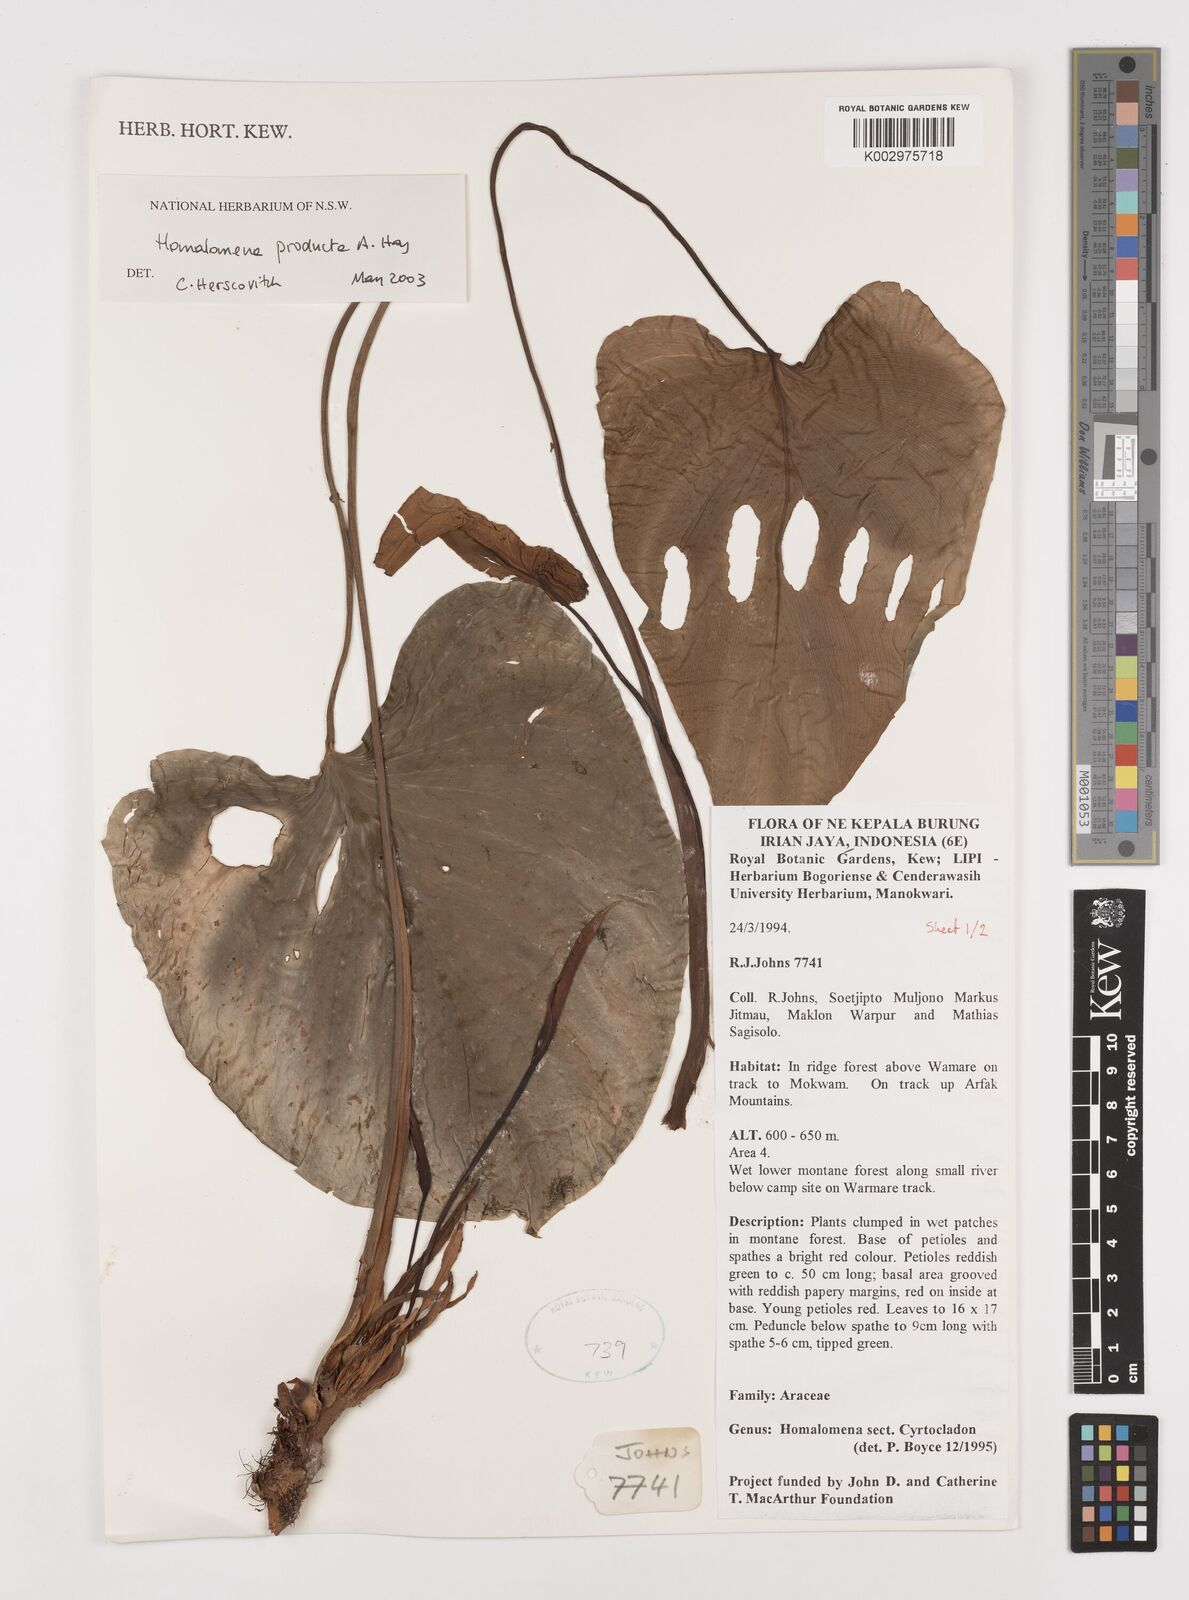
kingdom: Plantae
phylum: Tracheophyta
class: Liliopsida
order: Alismatales
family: Araceae
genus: Homalomena
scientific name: Homalomena producta
